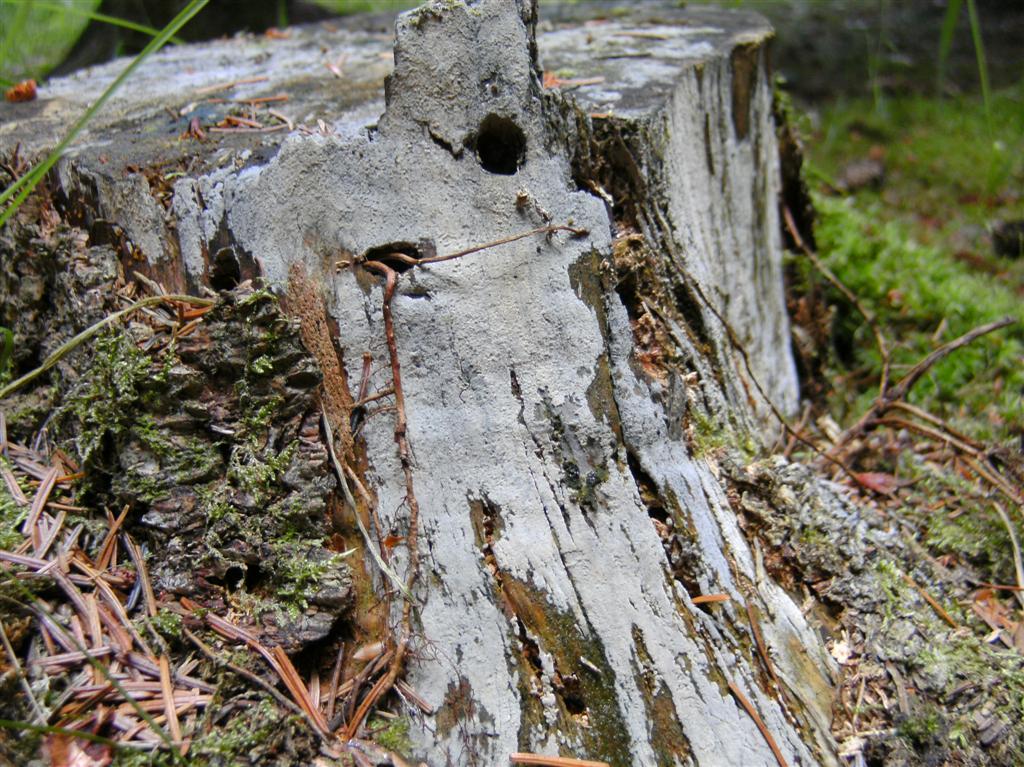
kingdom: Fungi
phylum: Basidiomycota
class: Agaricomycetes
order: Hymenochaetales
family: Hyphodontiaceae
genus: Hyphodontia
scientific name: Hyphodontia pallidula
